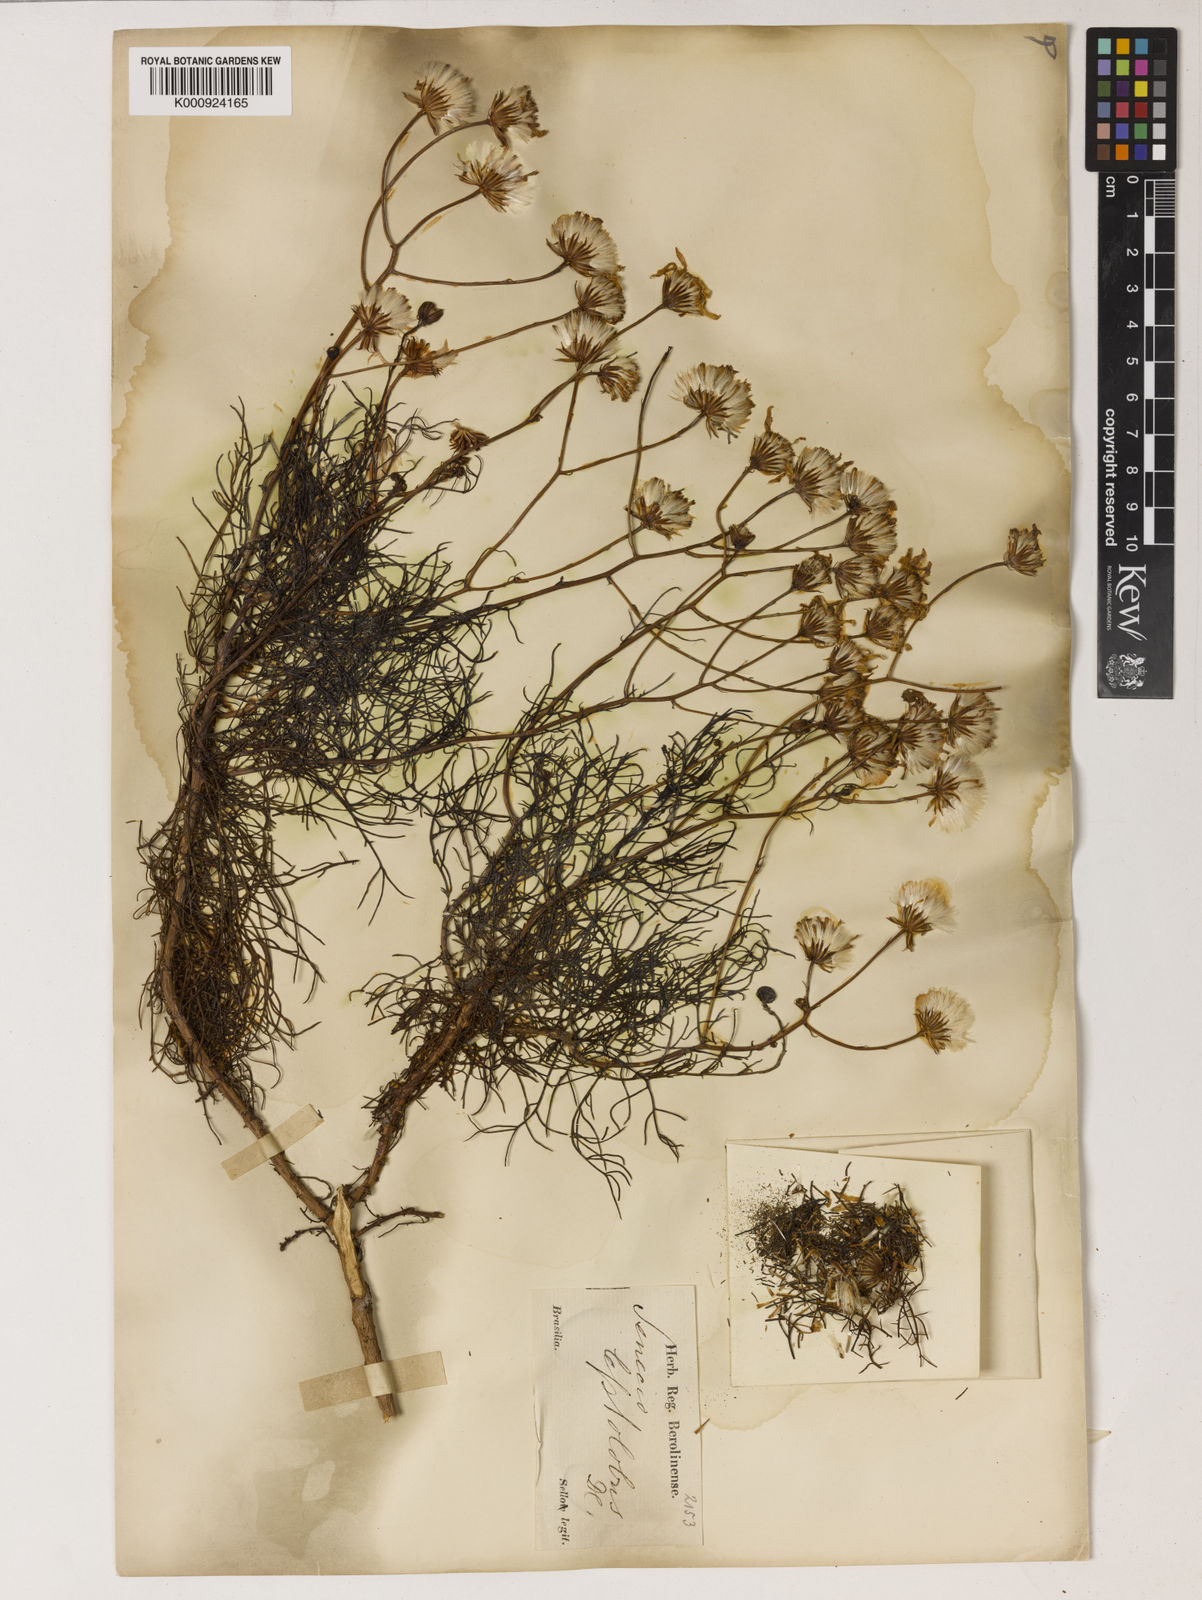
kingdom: Plantae
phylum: Tracheophyta
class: Magnoliopsida
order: Asterales
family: Asteraceae
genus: Senecio
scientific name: Senecio leptolobus
